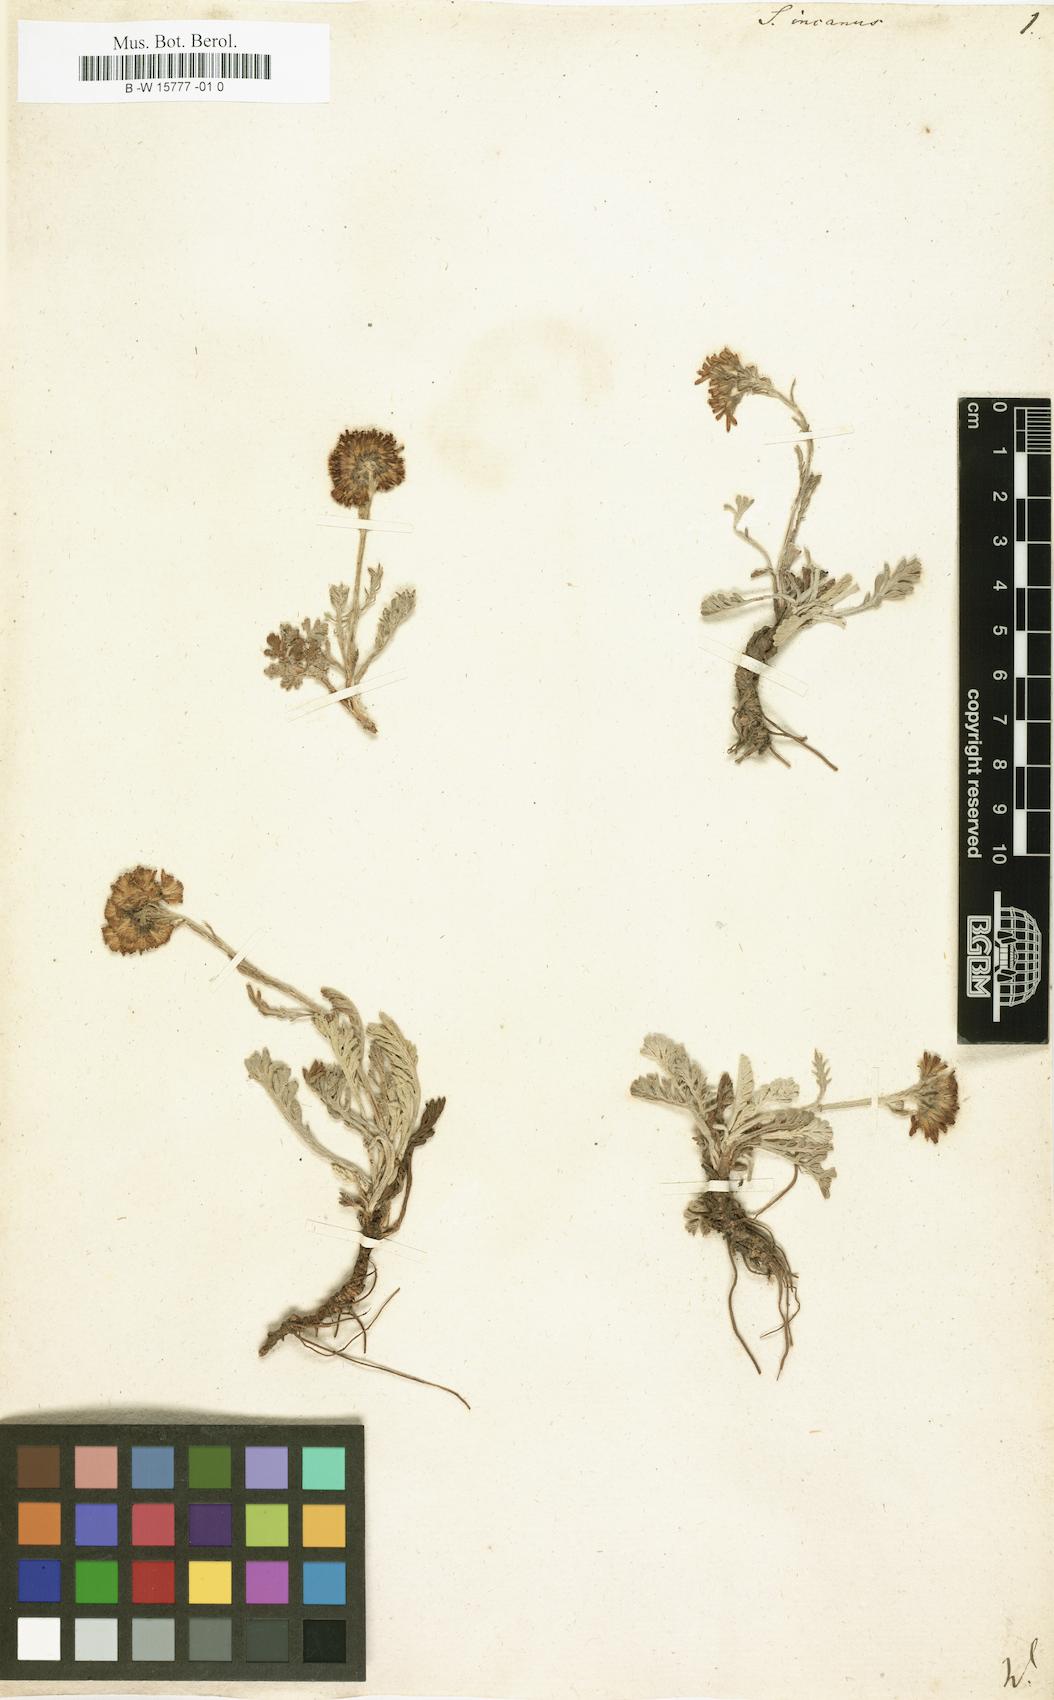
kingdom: Plantae
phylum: Tracheophyta
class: Magnoliopsida
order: Asterales
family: Asteraceae
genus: Jacobaea
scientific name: Jacobaea incana
